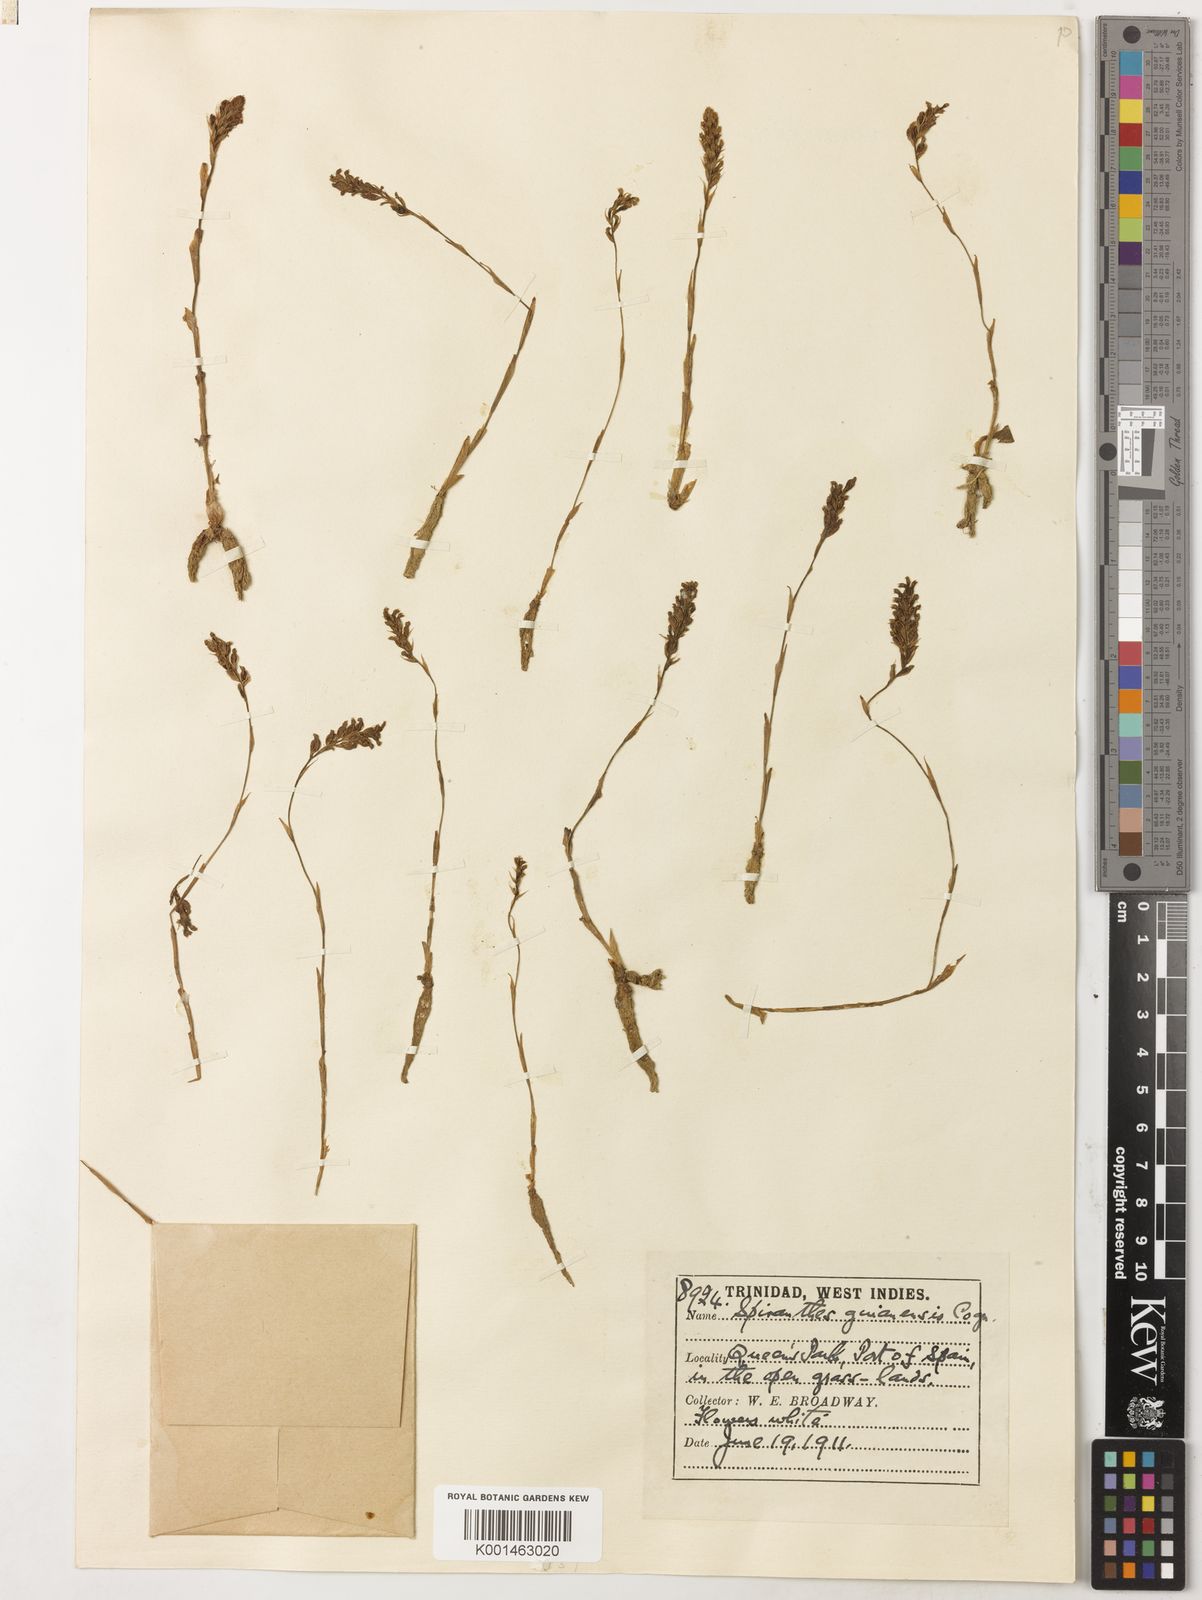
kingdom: Plantae
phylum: Tracheophyta
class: Liliopsida
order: Asparagales
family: Orchidaceae
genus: Brachystele
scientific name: Brachystele guayanensis
